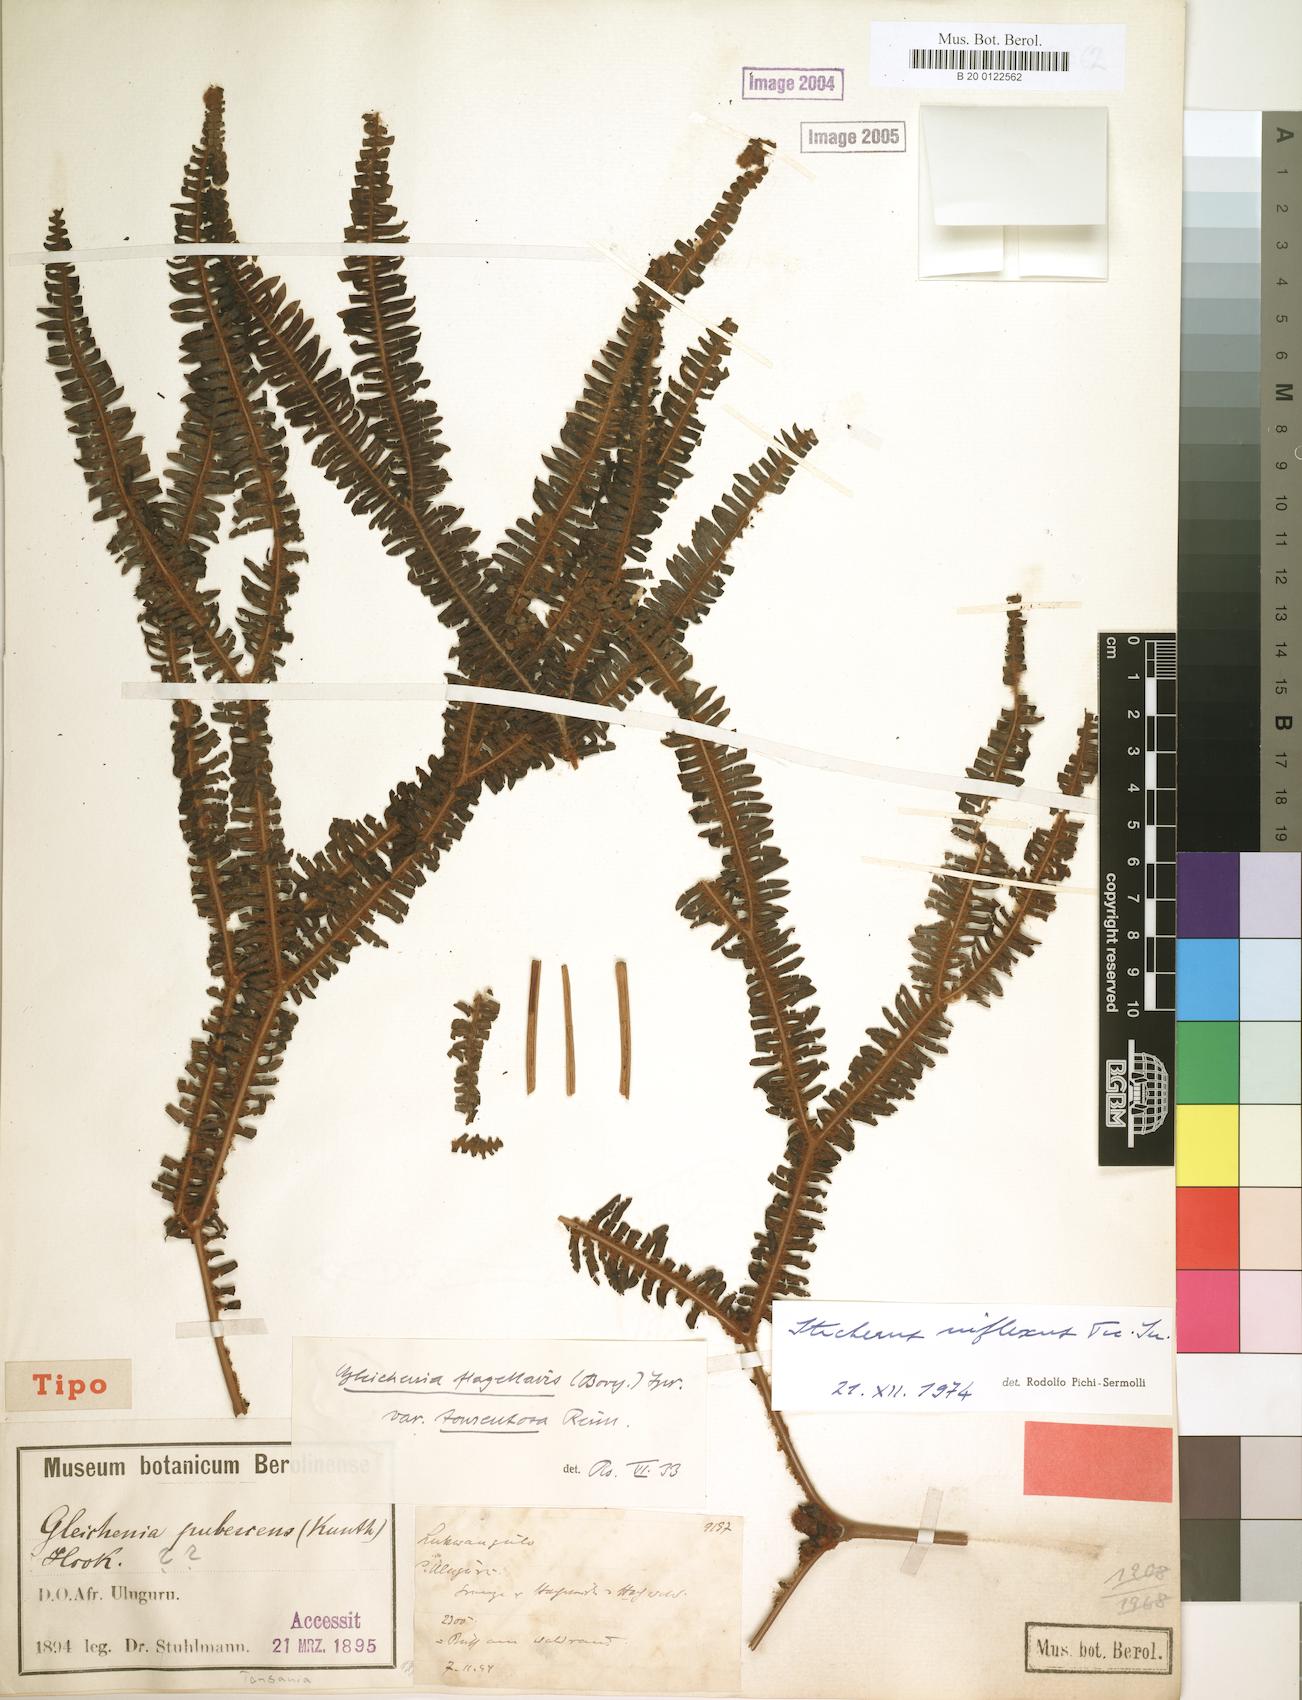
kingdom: Plantae
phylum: Tracheophyta
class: Polypodiopsida
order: Gleicheniales
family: Gleicheniaceae
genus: Sticherus
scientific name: Sticherus inflexus
